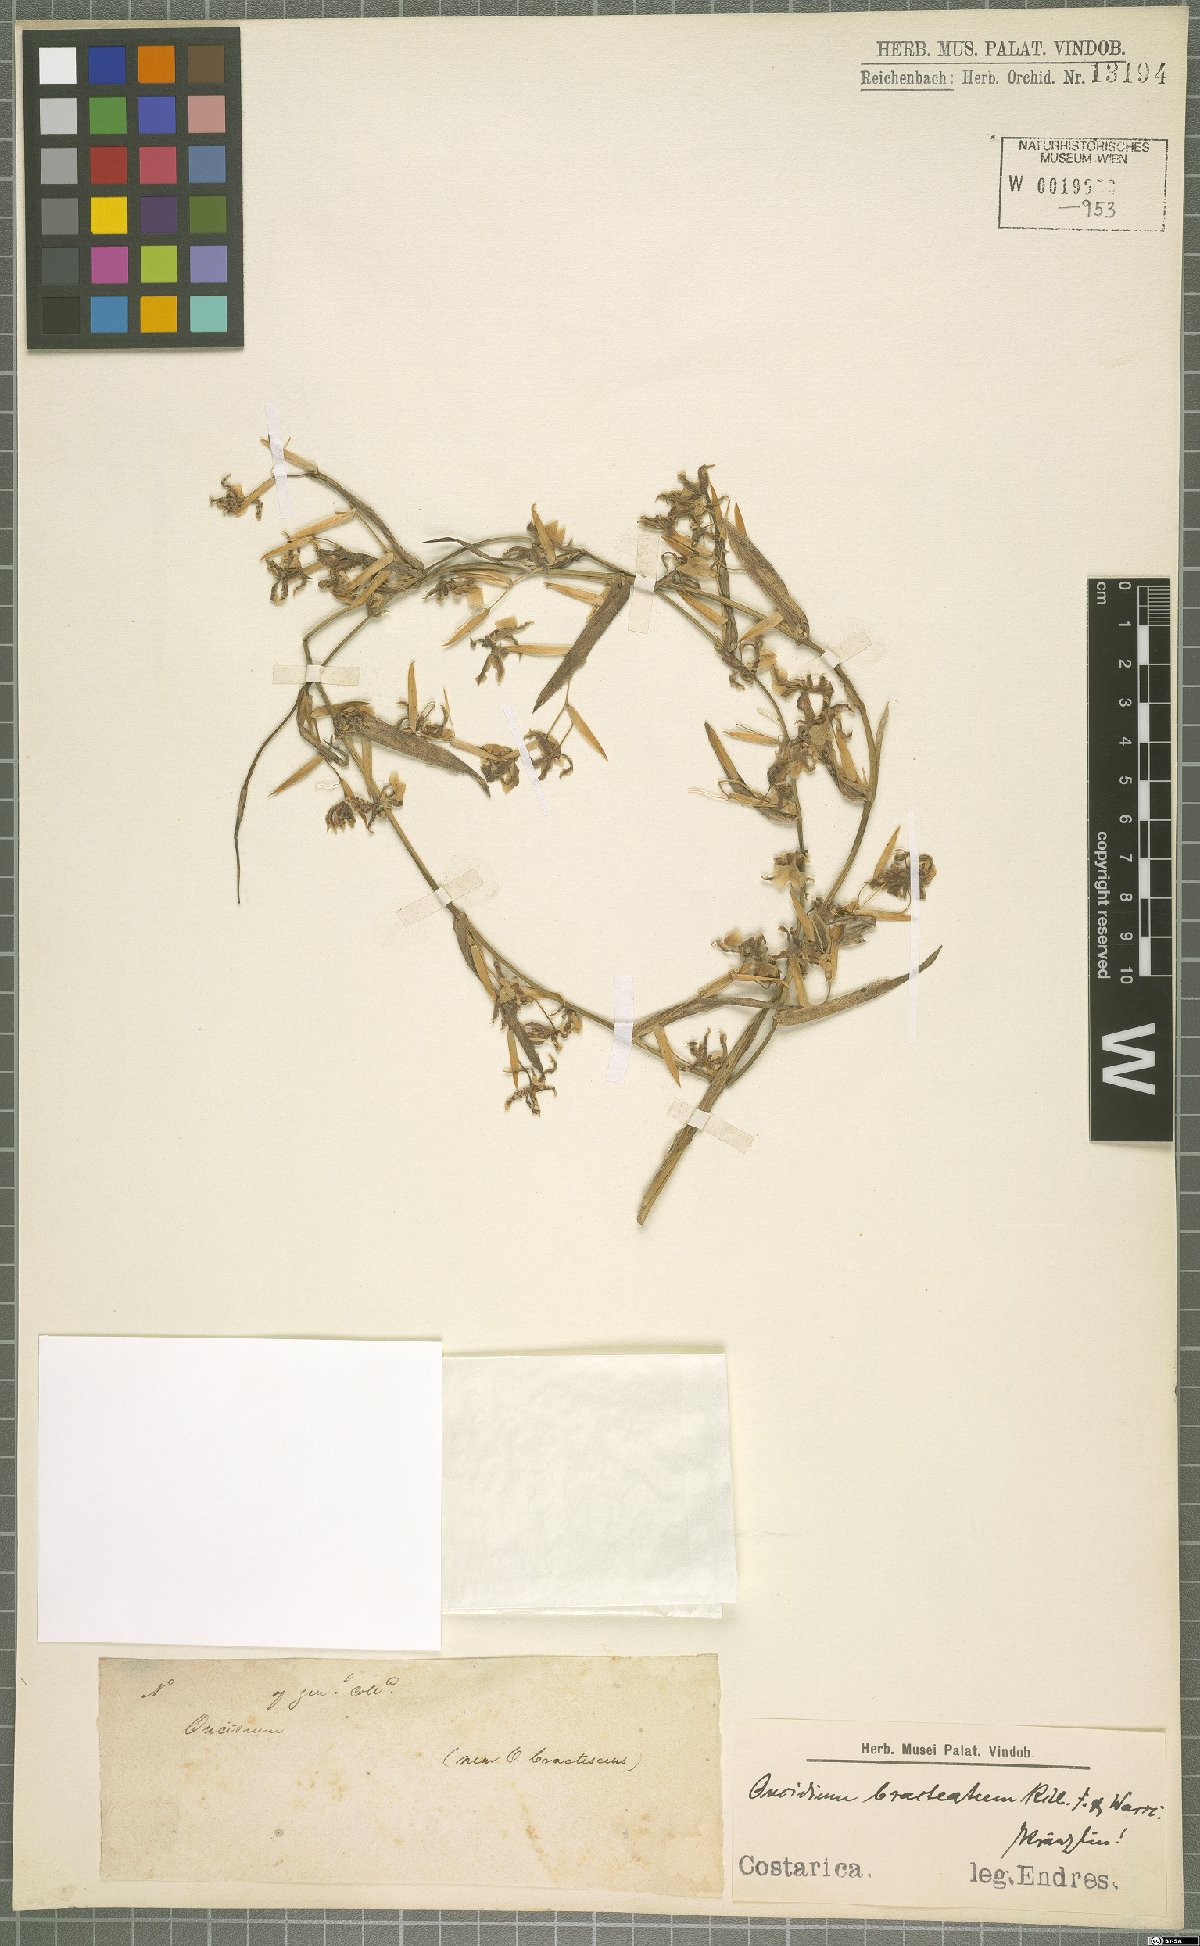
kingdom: Plantae
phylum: Tracheophyta
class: Liliopsida
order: Asparagales
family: Orchidaceae
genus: Oncidium
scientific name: Oncidium bracteatum
